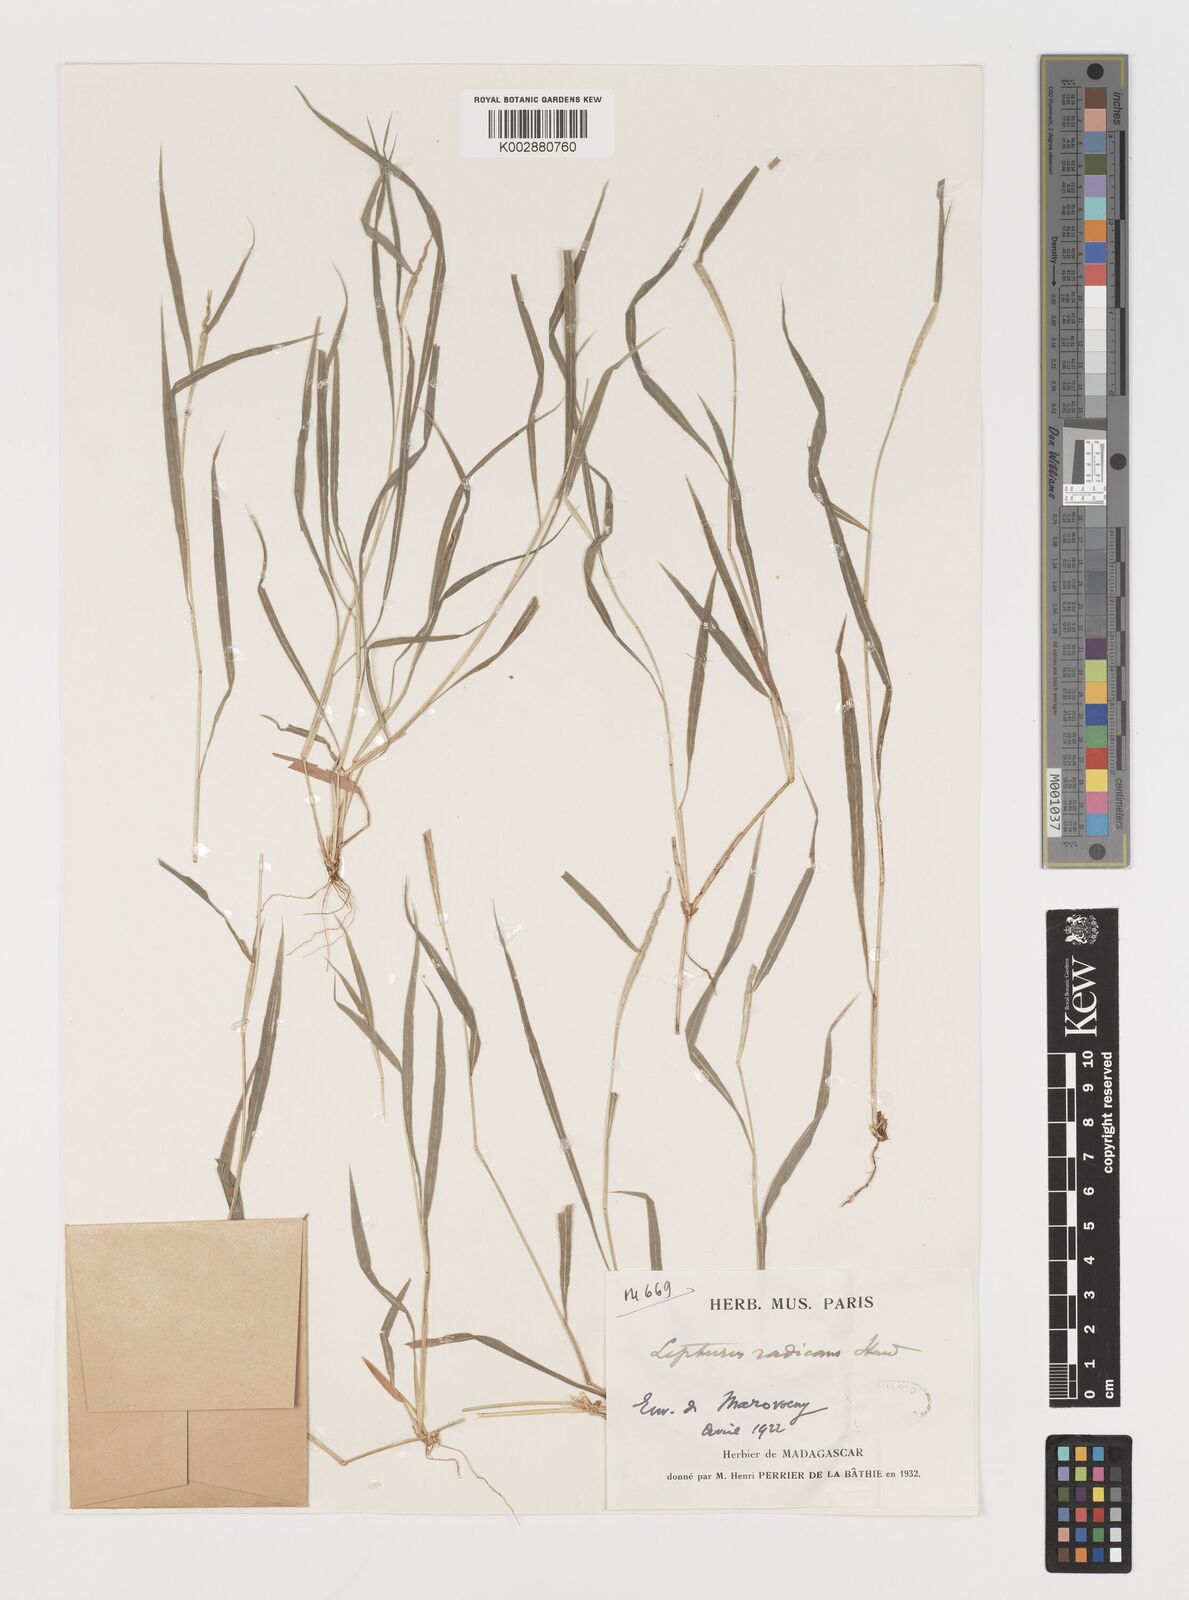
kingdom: Plantae
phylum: Tracheophyta
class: Liliopsida
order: Poales
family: Poaceae
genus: Lepturus
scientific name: Lepturus radicans
